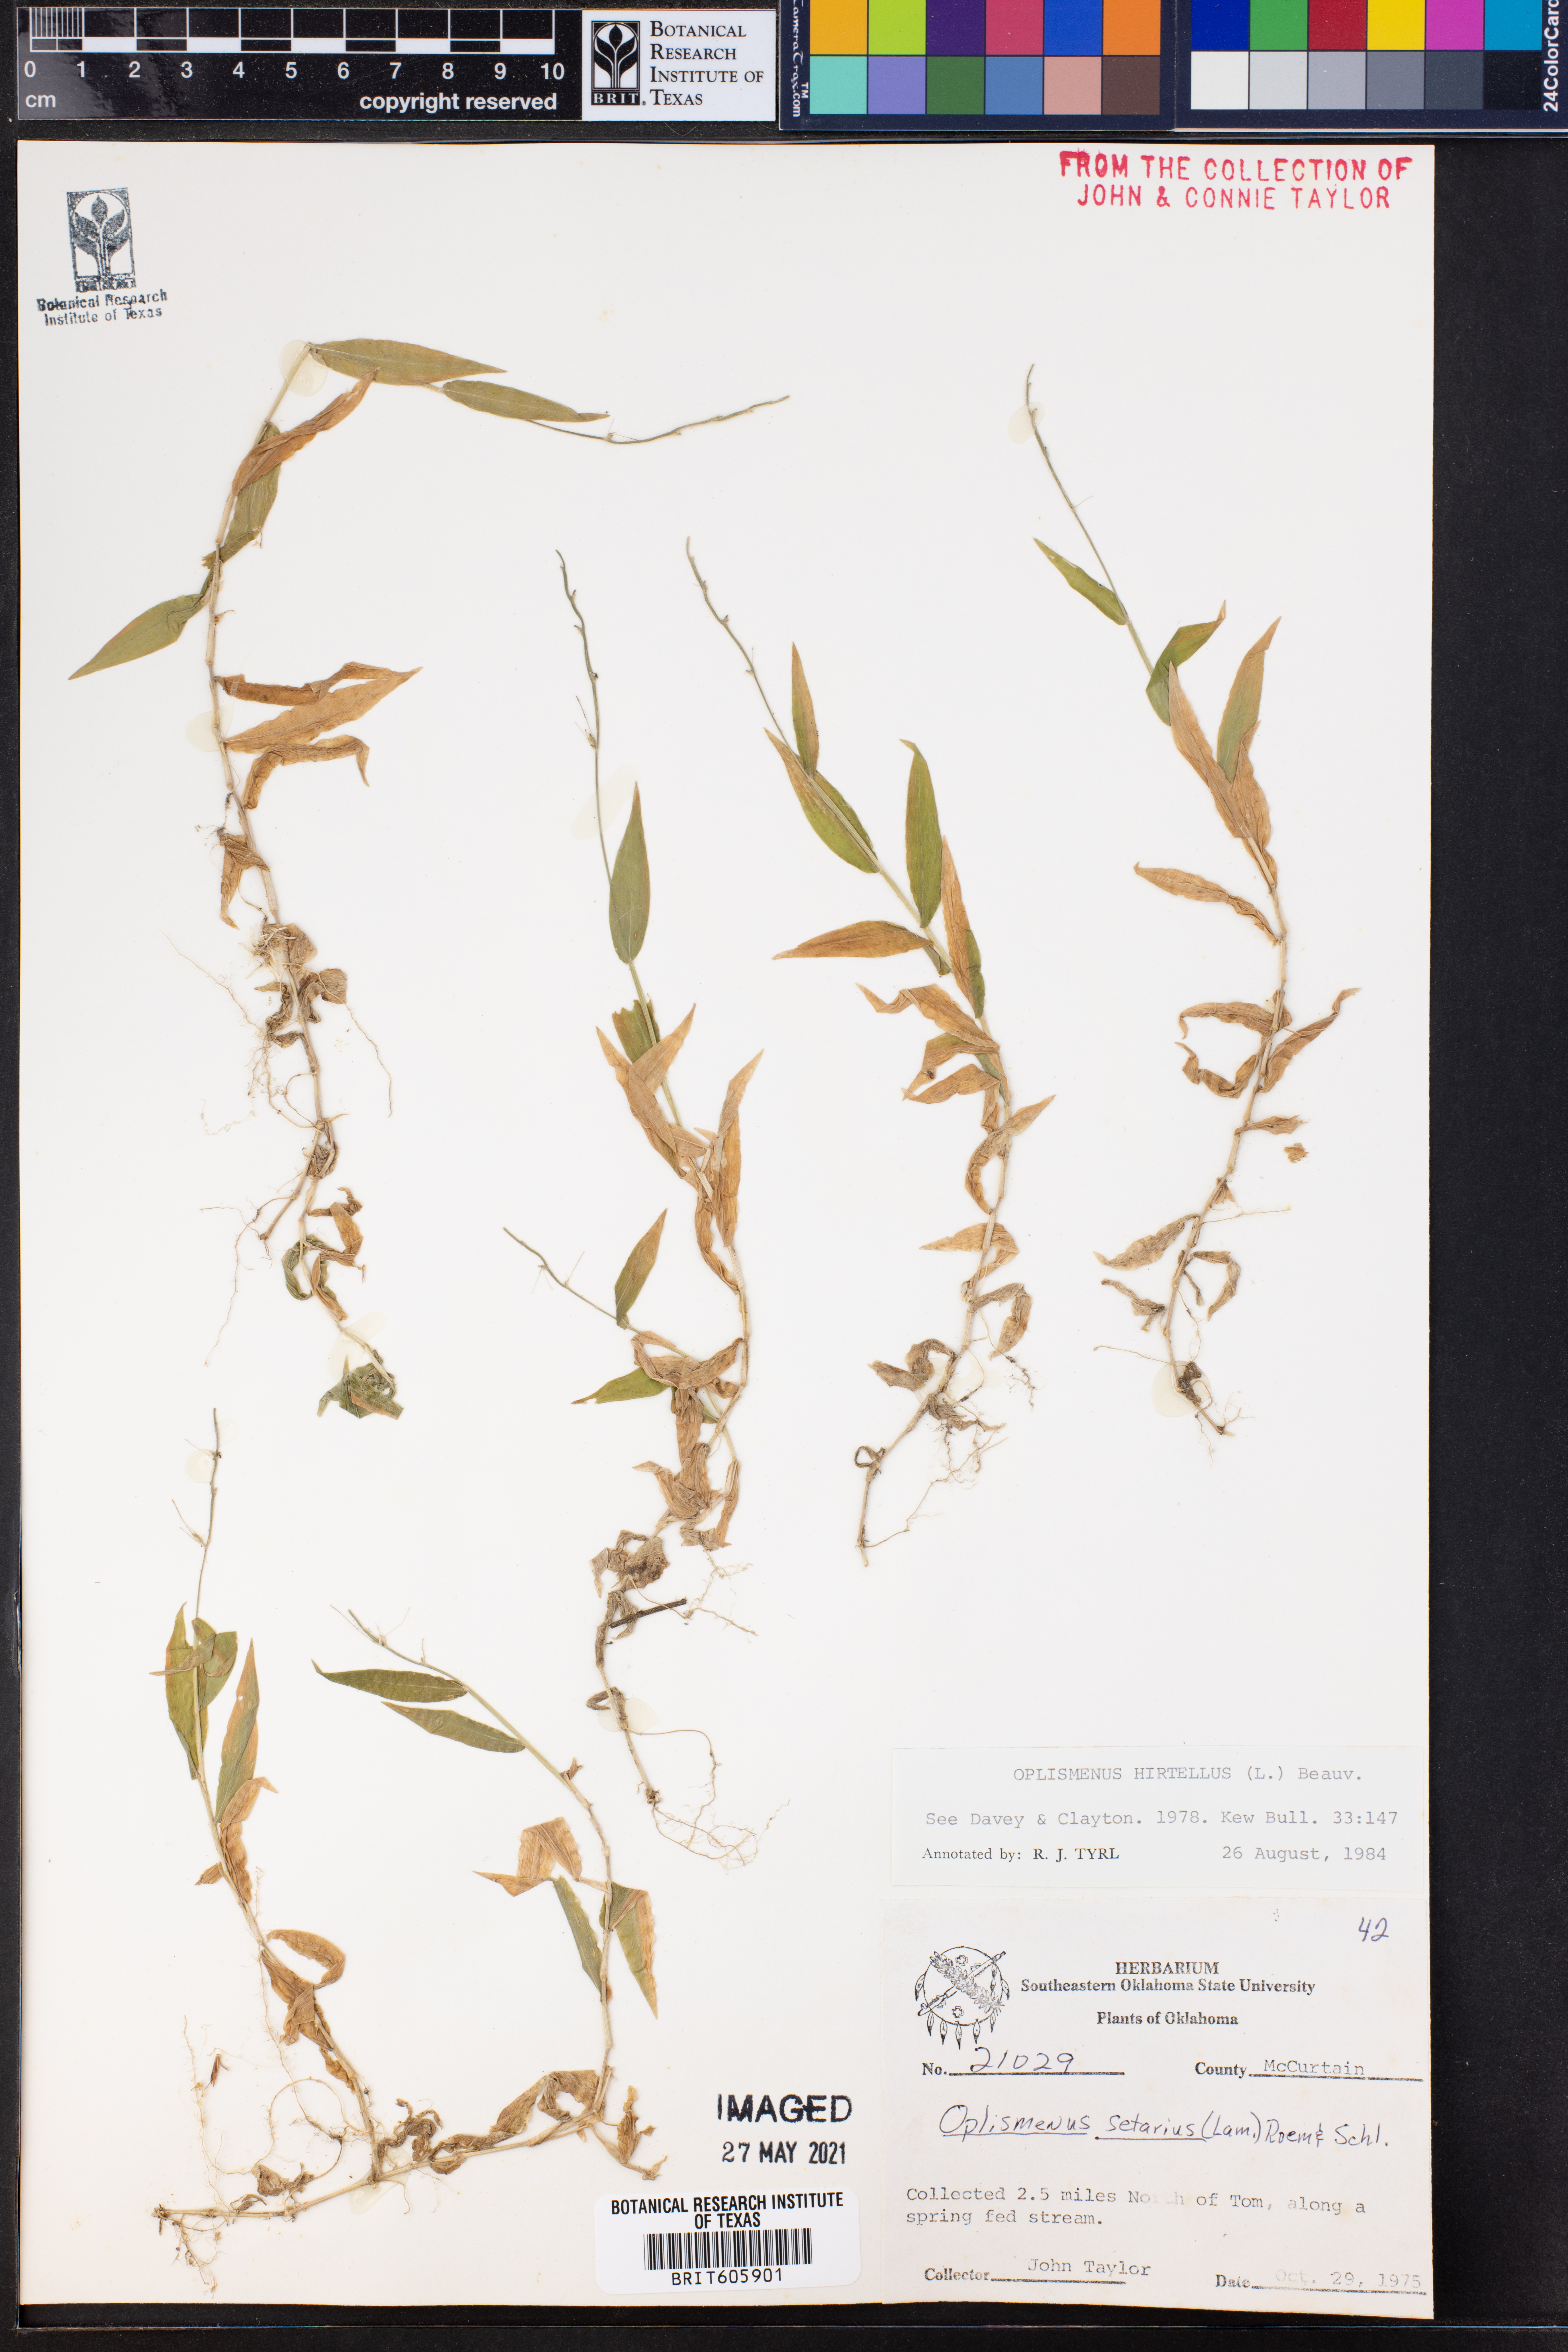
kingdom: Plantae
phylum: Tracheophyta
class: Liliopsida
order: Poales
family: Poaceae
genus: Oplismenus
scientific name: Oplismenus hirtellus
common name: Basketgrass
